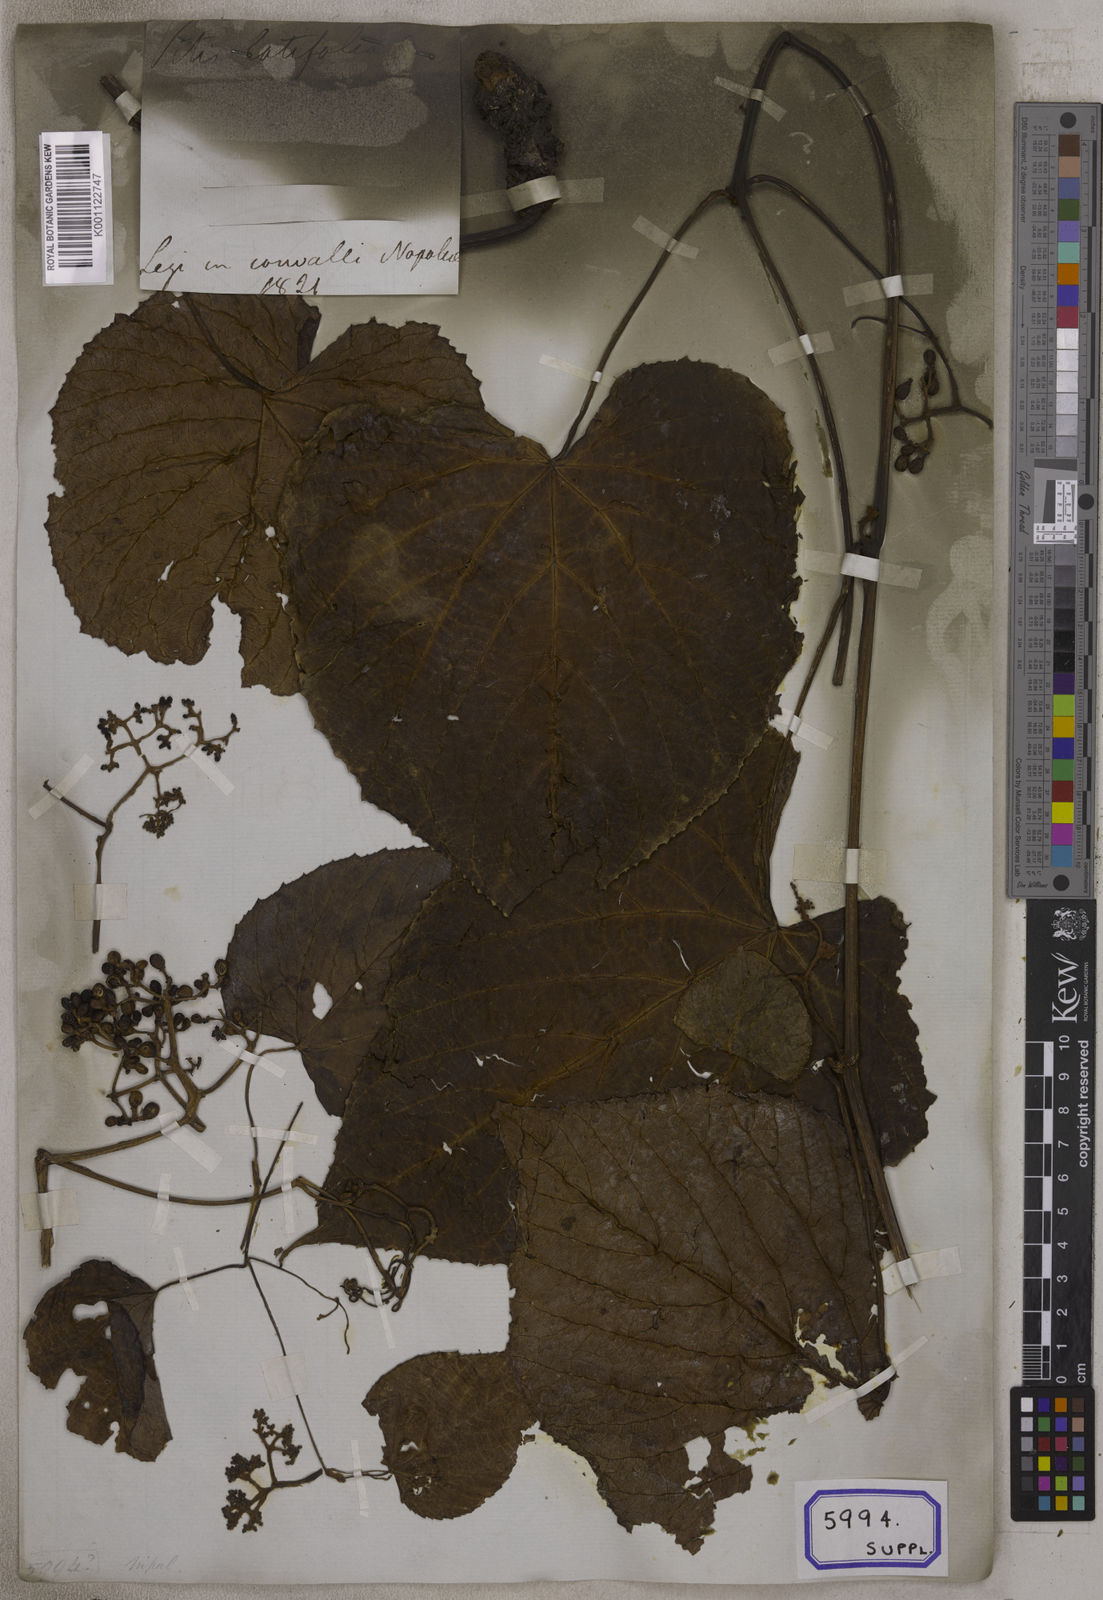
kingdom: Plantae
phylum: Tracheophyta
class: Magnoliopsida
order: Vitales
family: Vitaceae
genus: Ampelocissus
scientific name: Ampelocissus rugosa
